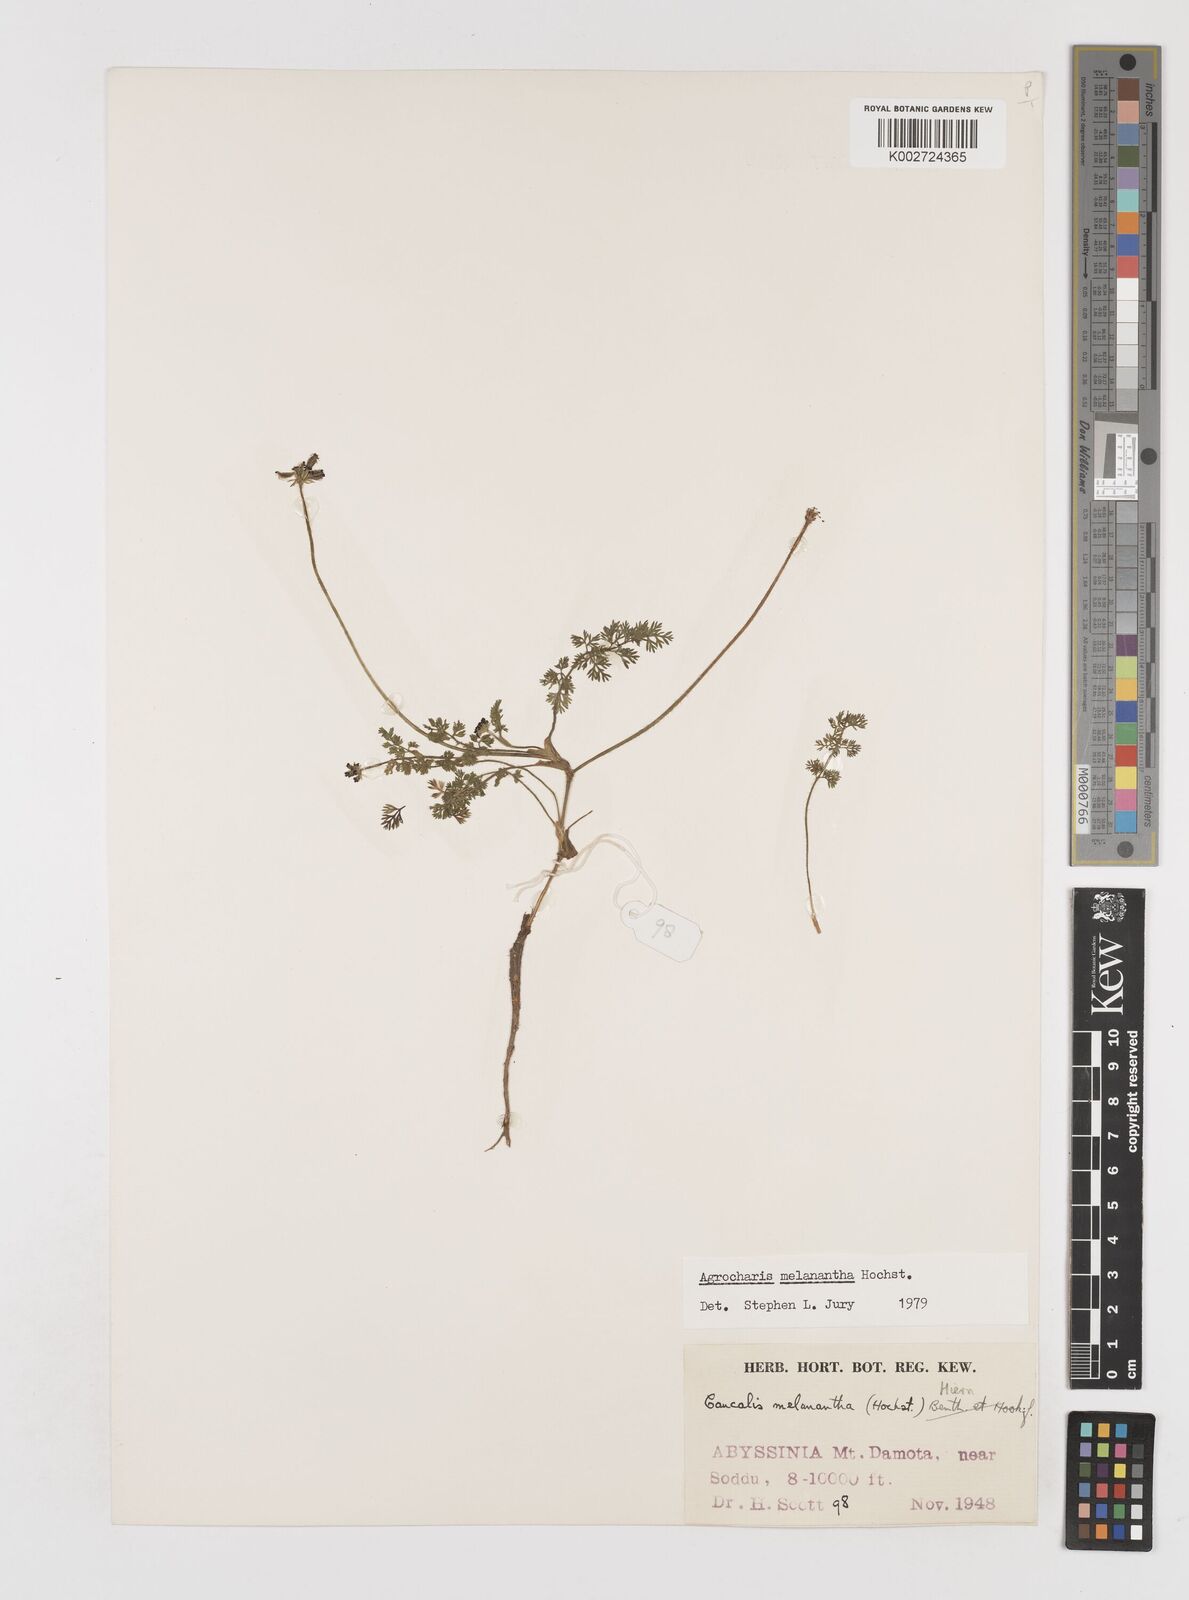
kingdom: Plantae
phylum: Tracheophyta
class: Magnoliopsida
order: Apiales
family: Apiaceae
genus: Daucus
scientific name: Daucus melananthus
